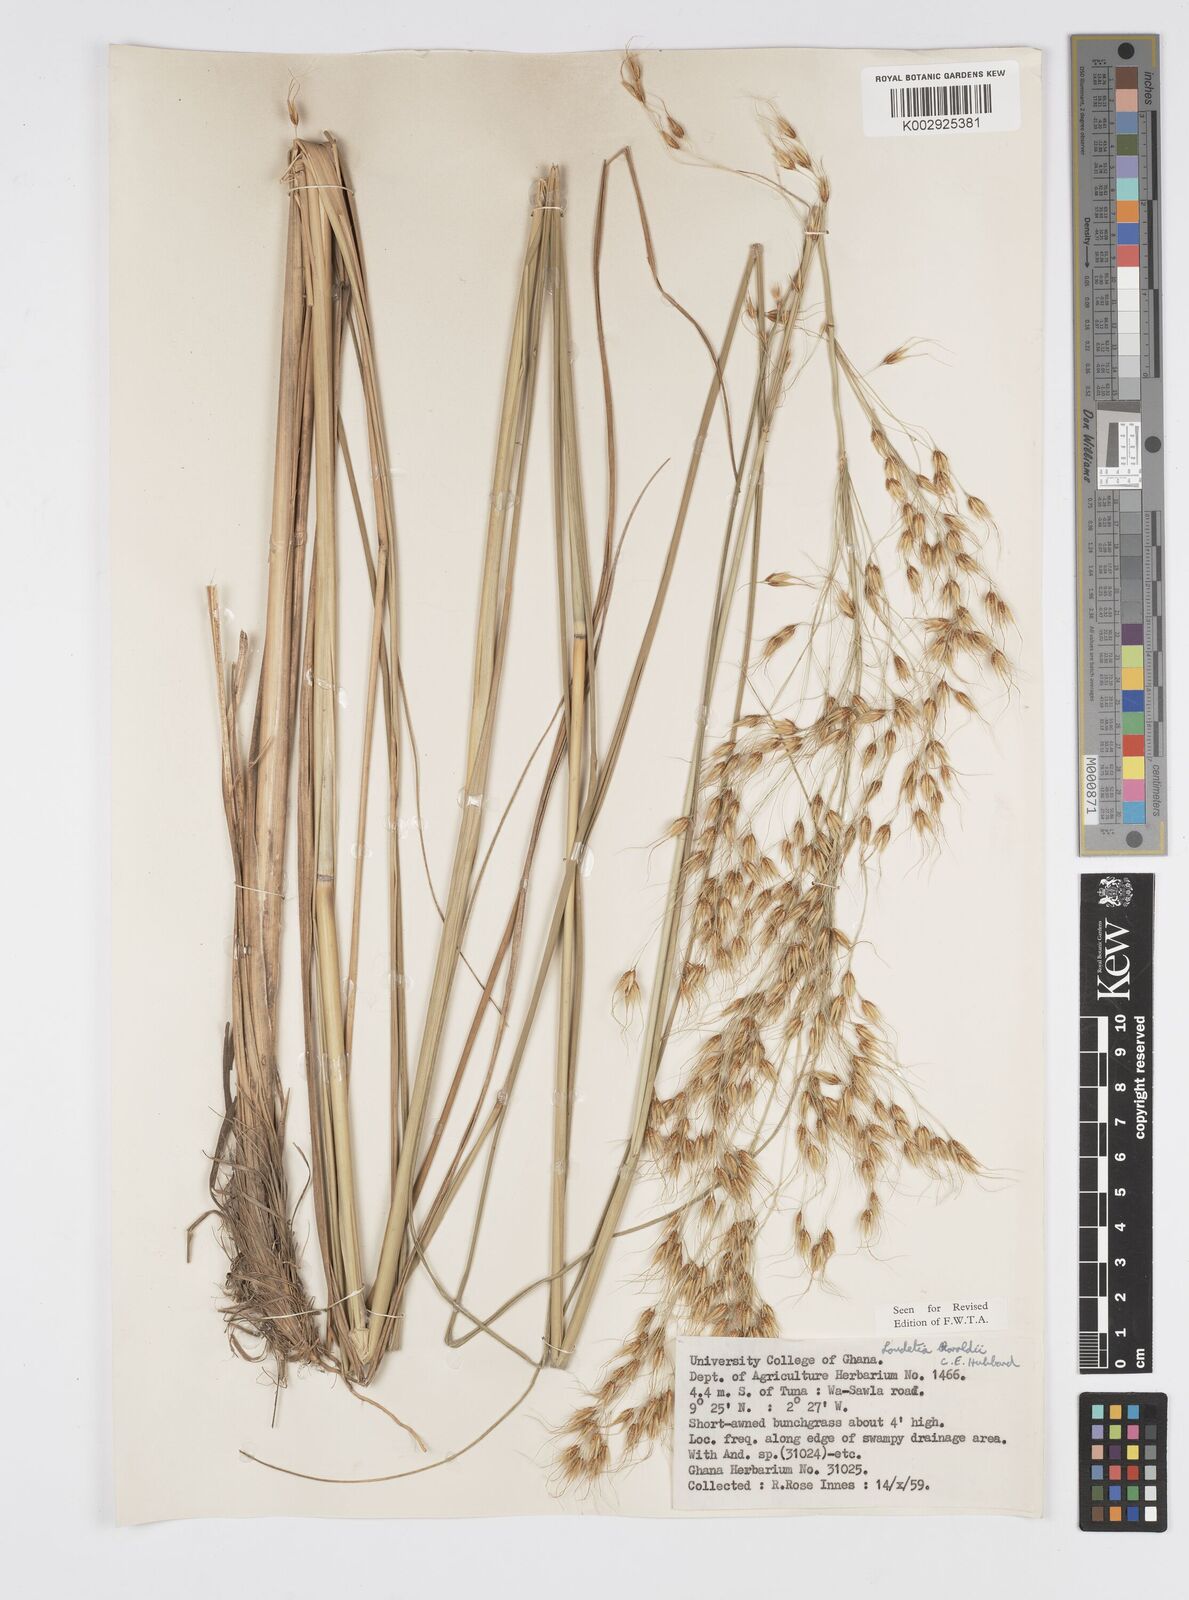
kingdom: Plantae
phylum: Tracheophyta
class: Liliopsida
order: Poales
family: Poaceae
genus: Loudetiopsis
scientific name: Loudetiopsis thoroldii
